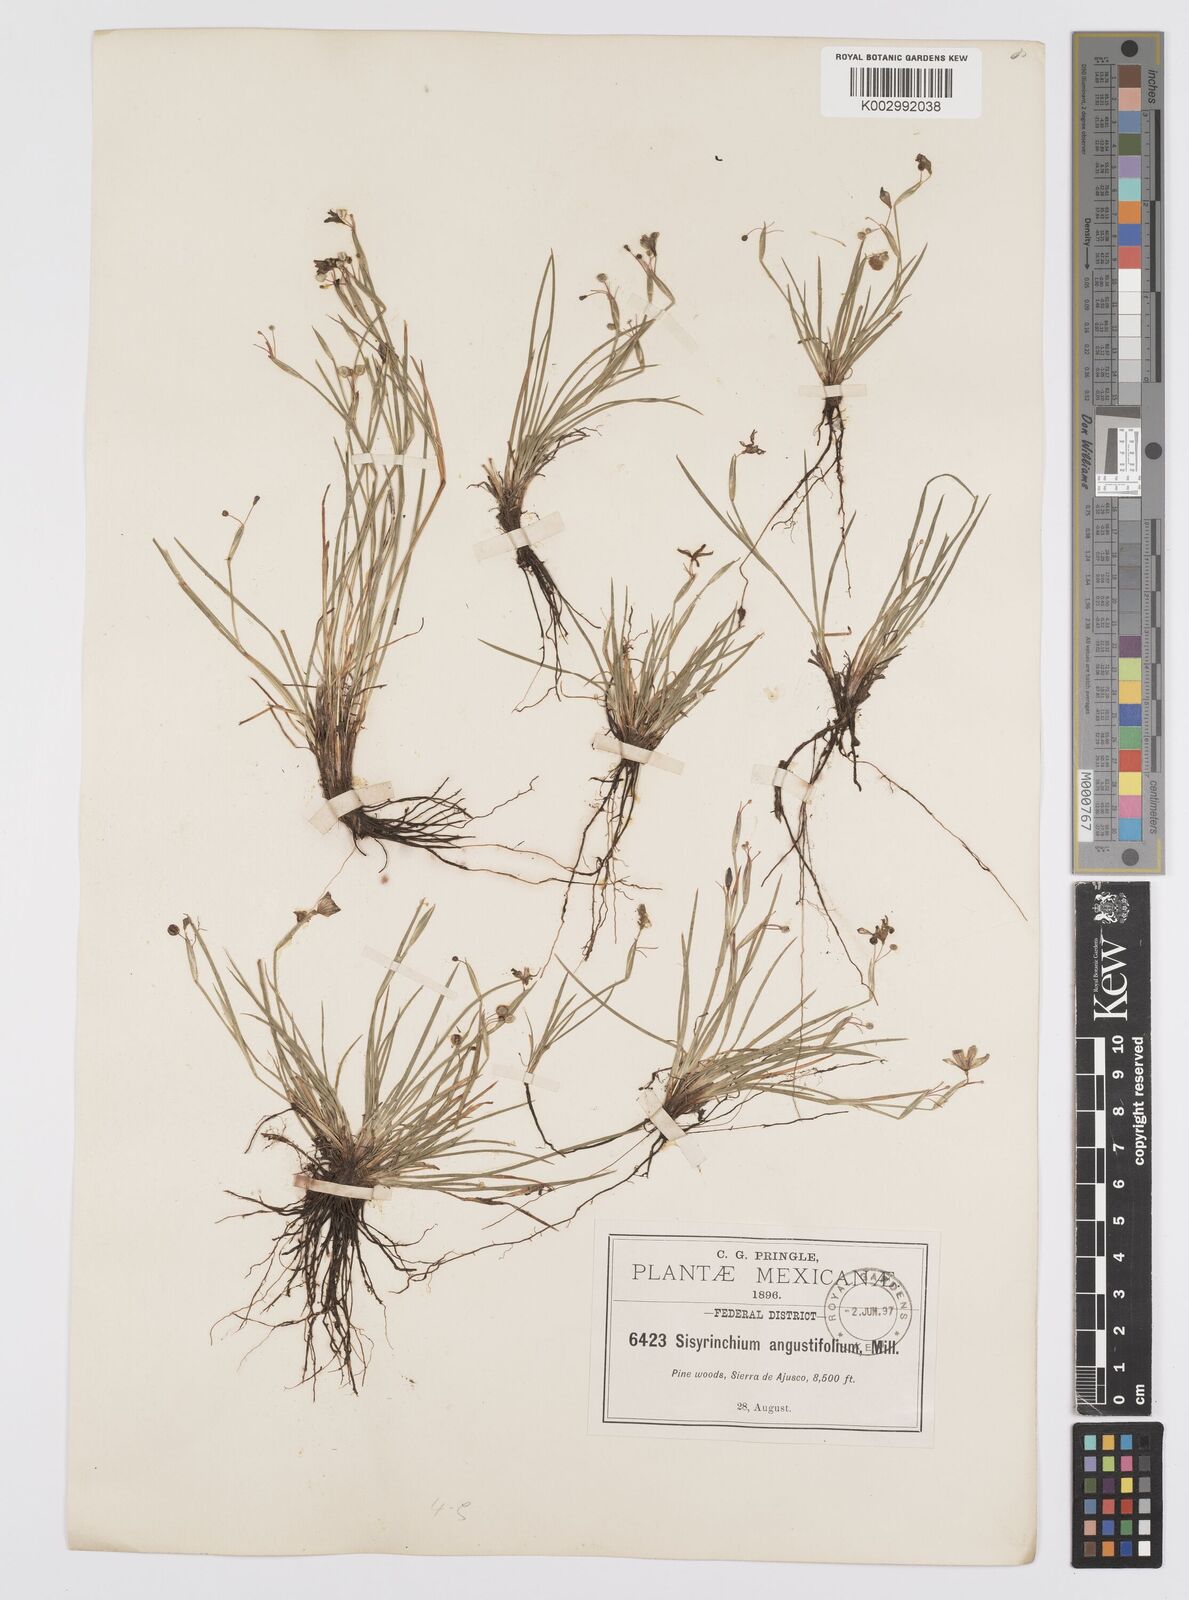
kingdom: Plantae
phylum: Tracheophyta
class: Liliopsida
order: Asparagales
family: Iridaceae
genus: Sisyrinchium
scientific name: Sisyrinchium angustifolium
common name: Narrow-leaf blue-eyed-grass
